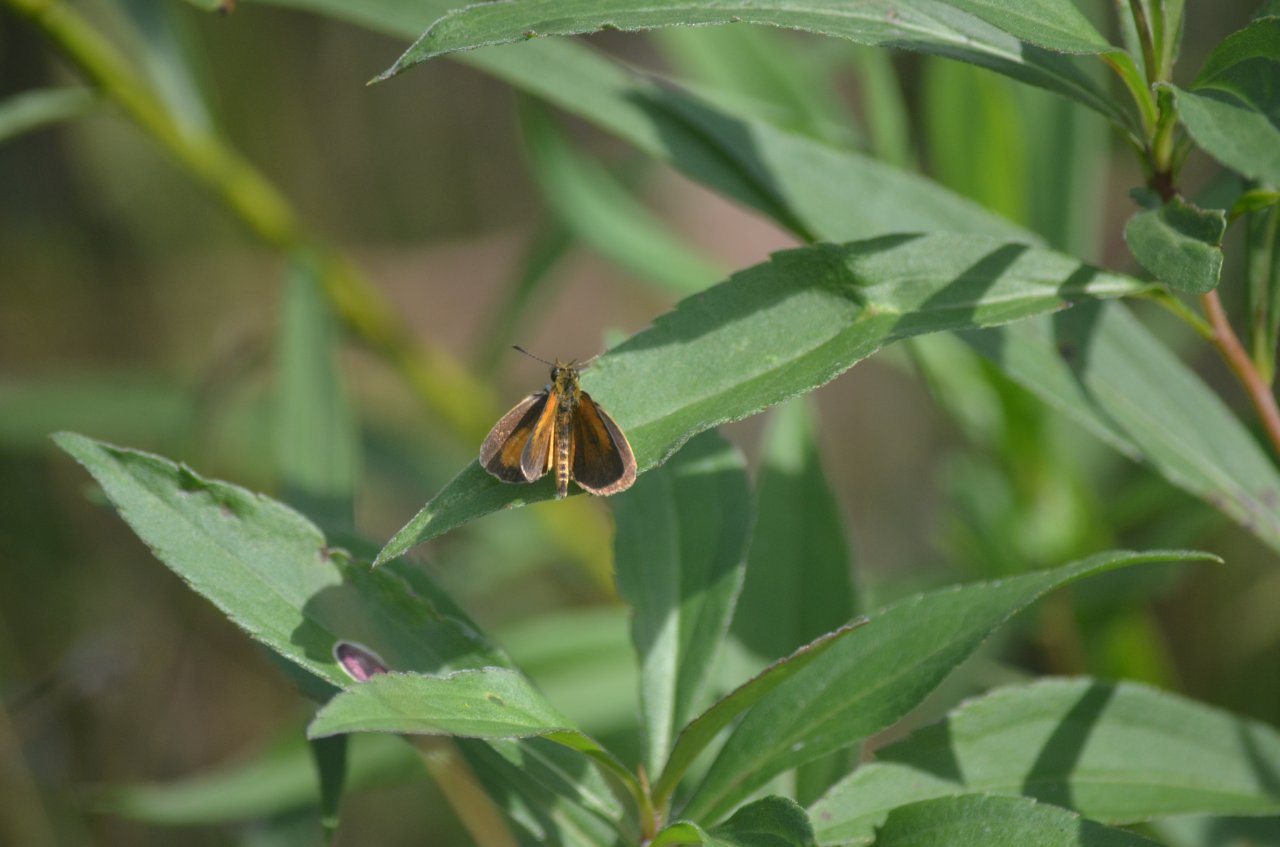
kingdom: Animalia
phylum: Arthropoda
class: Insecta
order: Lepidoptera
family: Hesperiidae
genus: Ancyloxypha
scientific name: Ancyloxypha numitor
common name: Least Skipper
